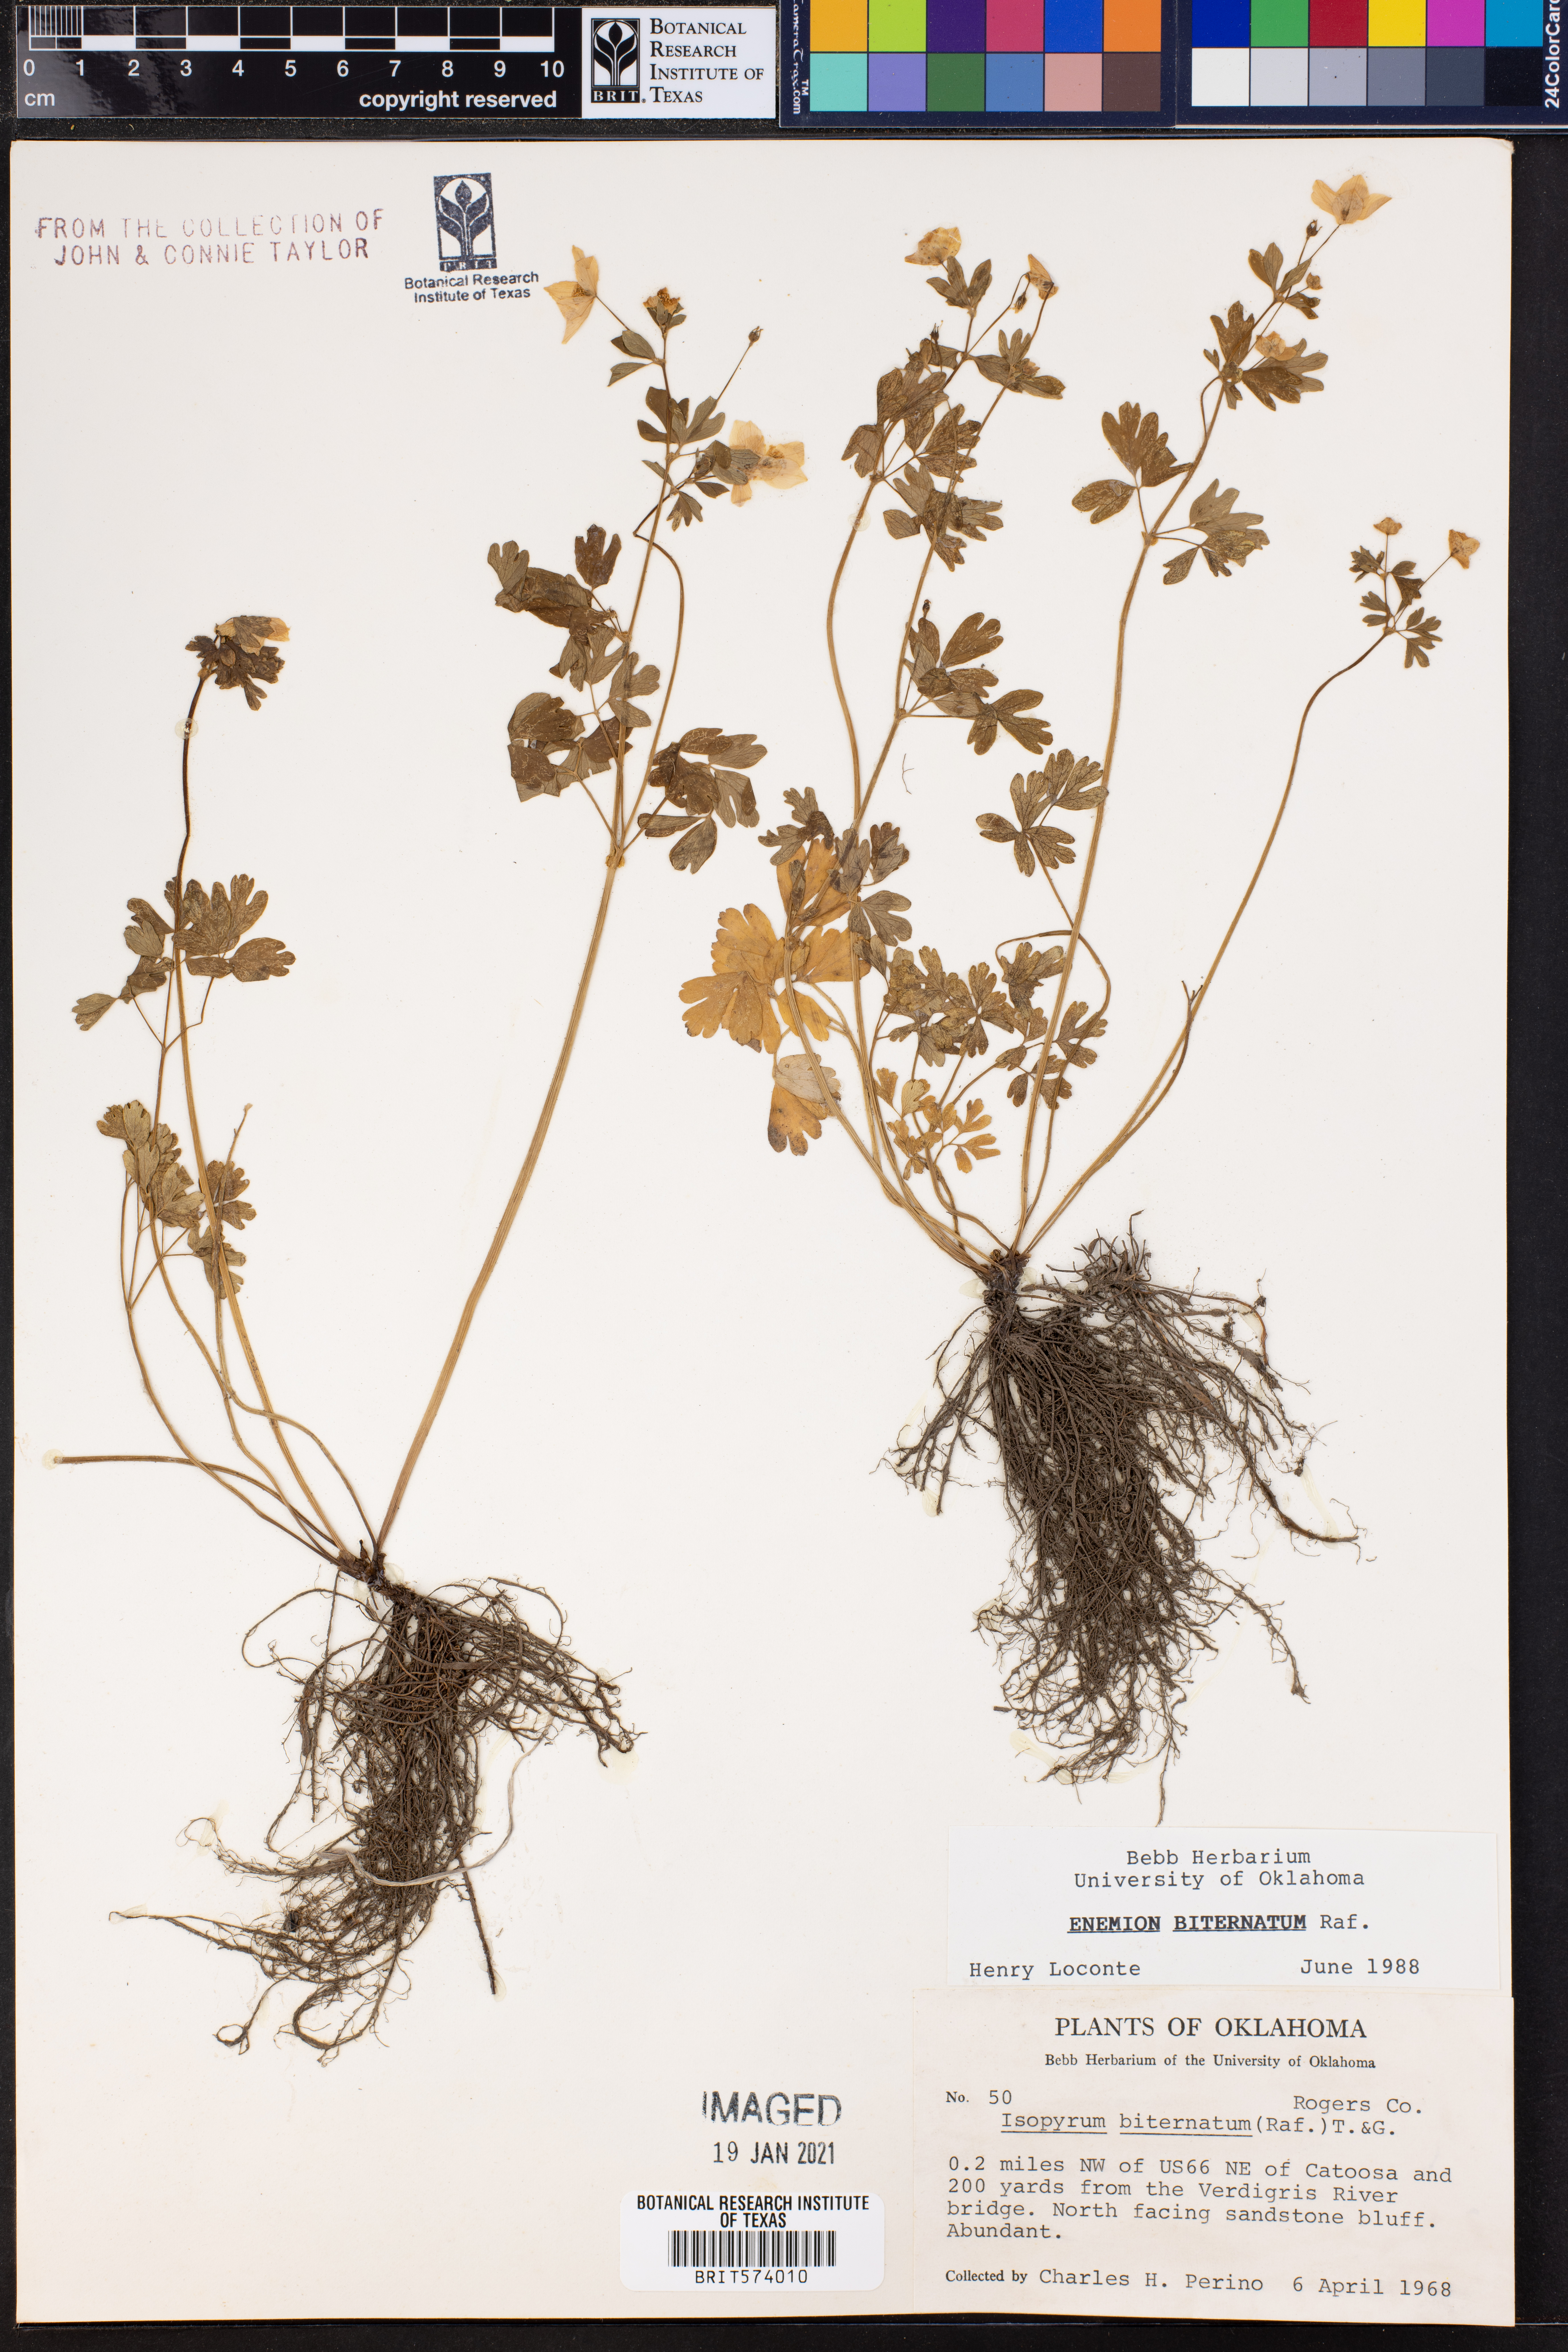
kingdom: Plantae
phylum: Tracheophyta
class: Magnoliopsida
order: Ranunculales
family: Ranunculaceae
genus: Enemion
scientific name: Enemion biternatum
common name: Eastern false rue-anemone
